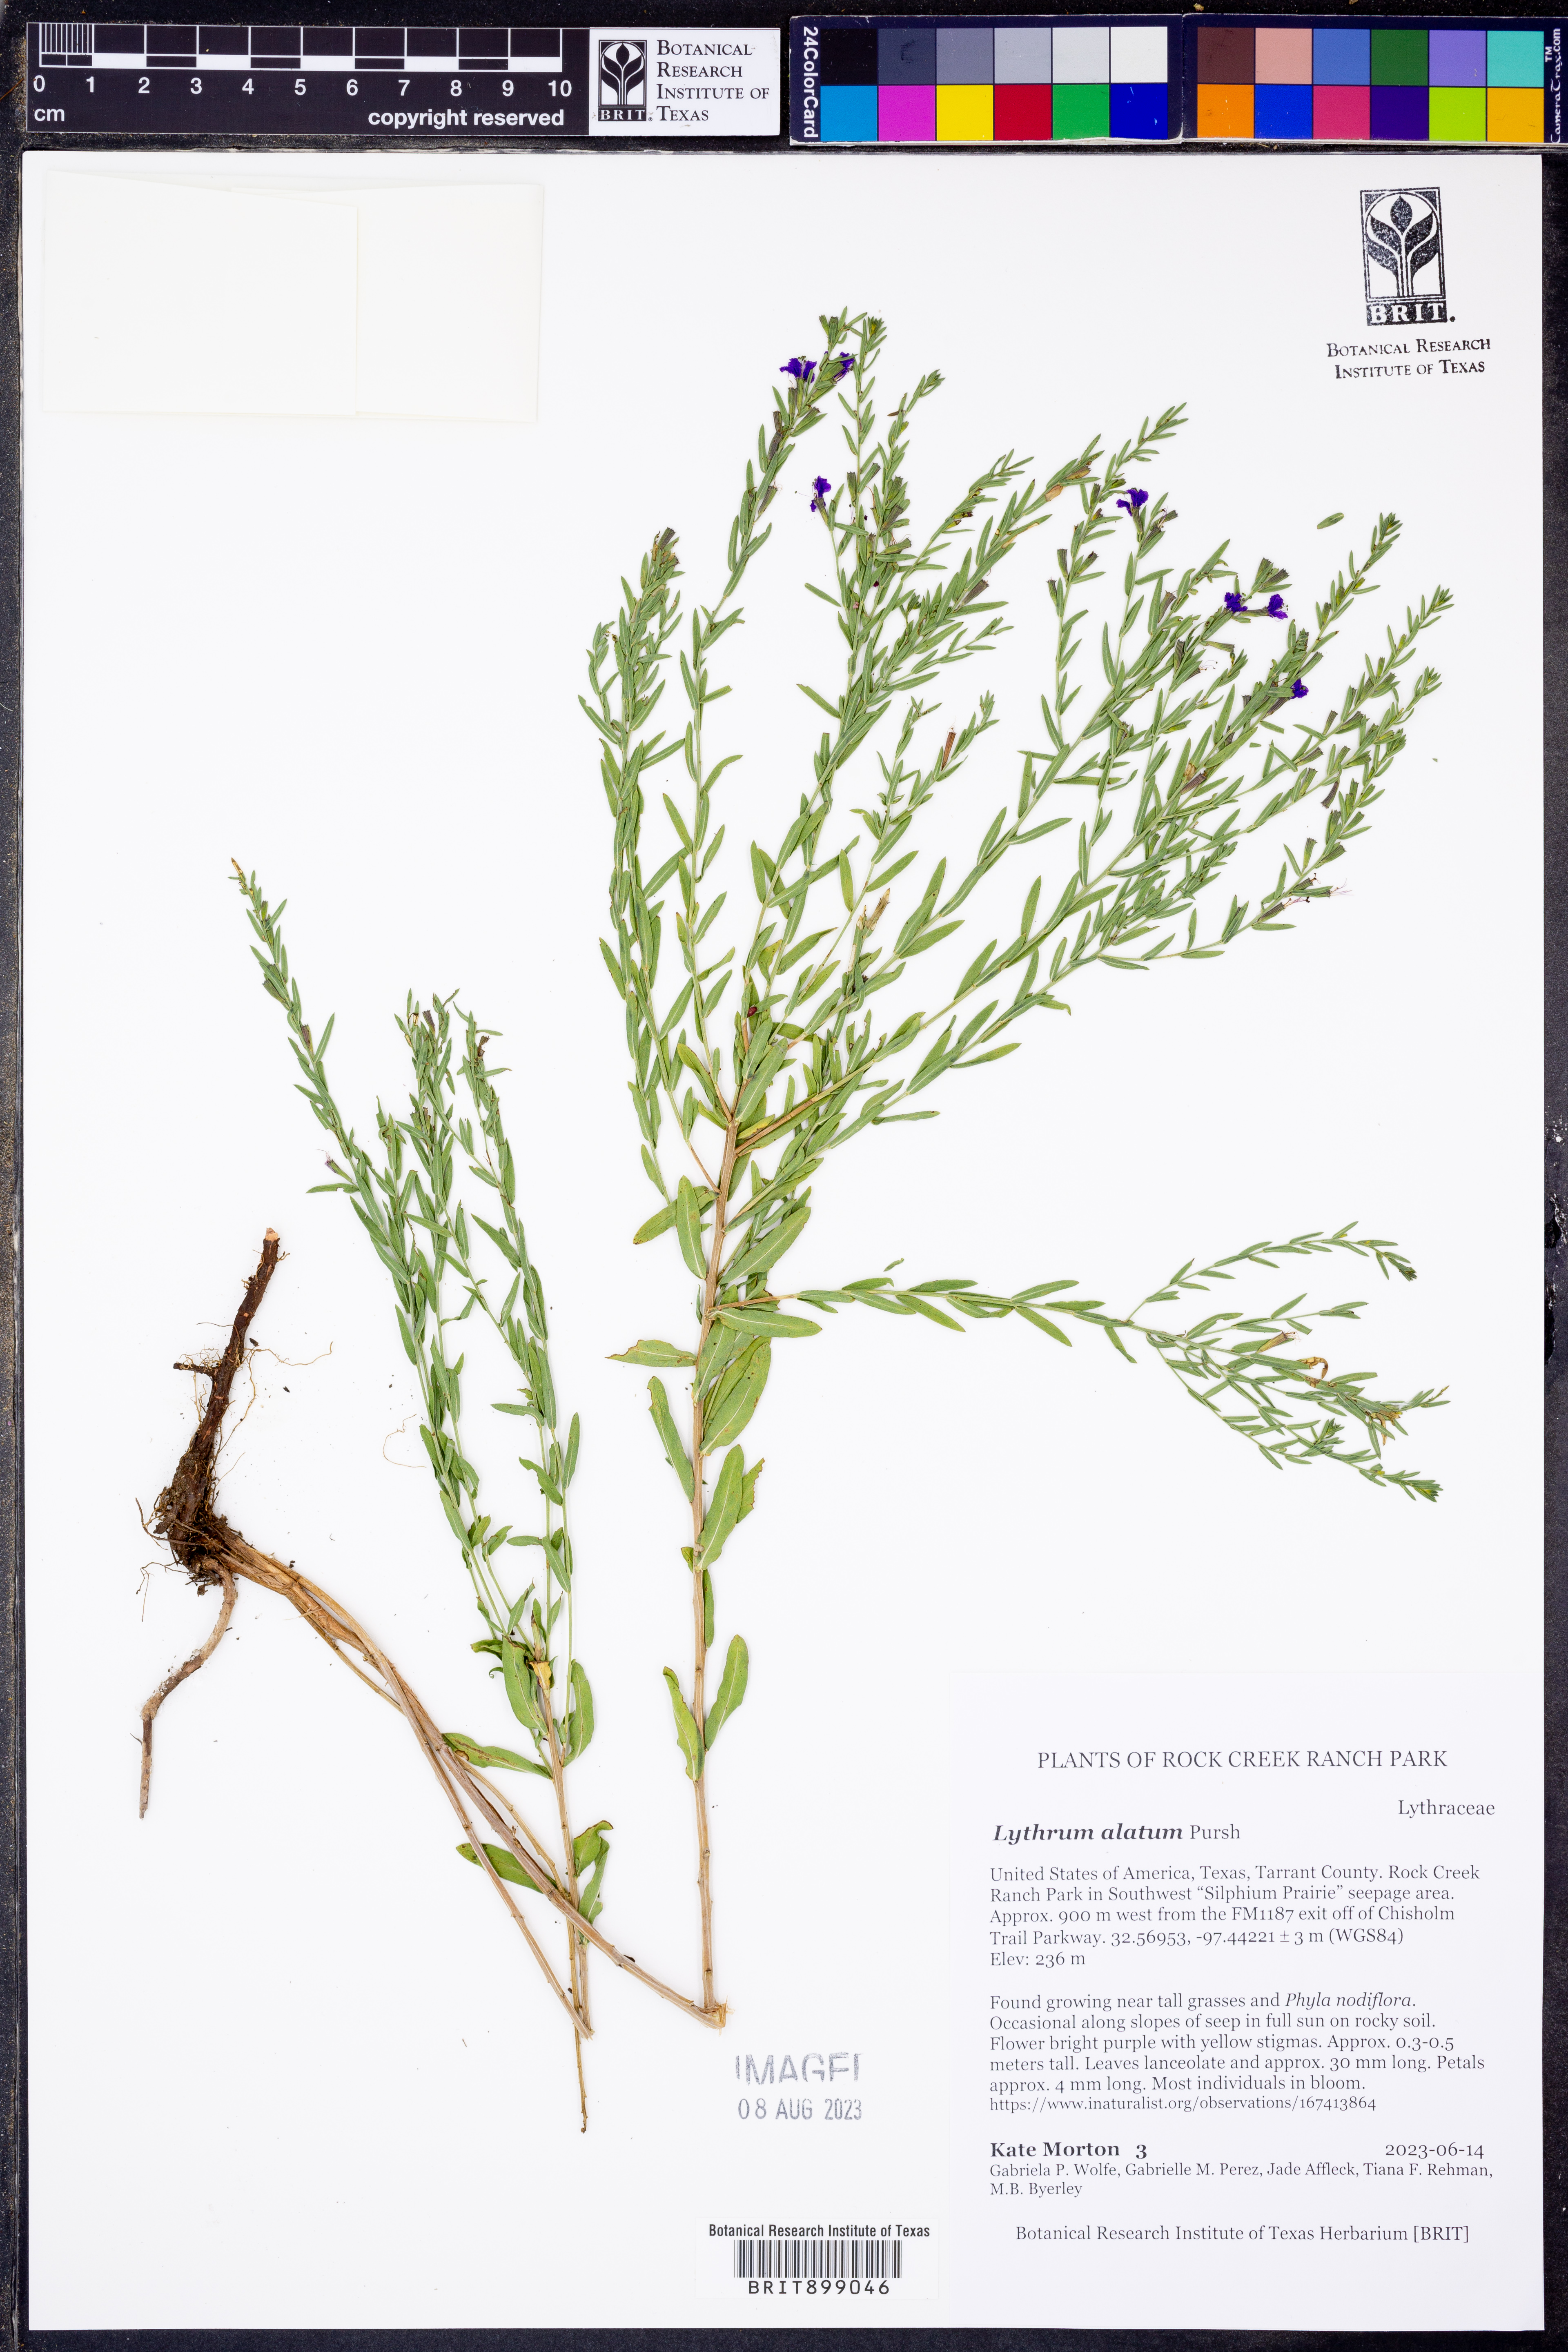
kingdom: Plantae
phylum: Tracheophyta
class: Magnoliopsida
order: Myrtales
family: Lythraceae
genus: Lythrum
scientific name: Lythrum alatum
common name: Winged loosestrife
